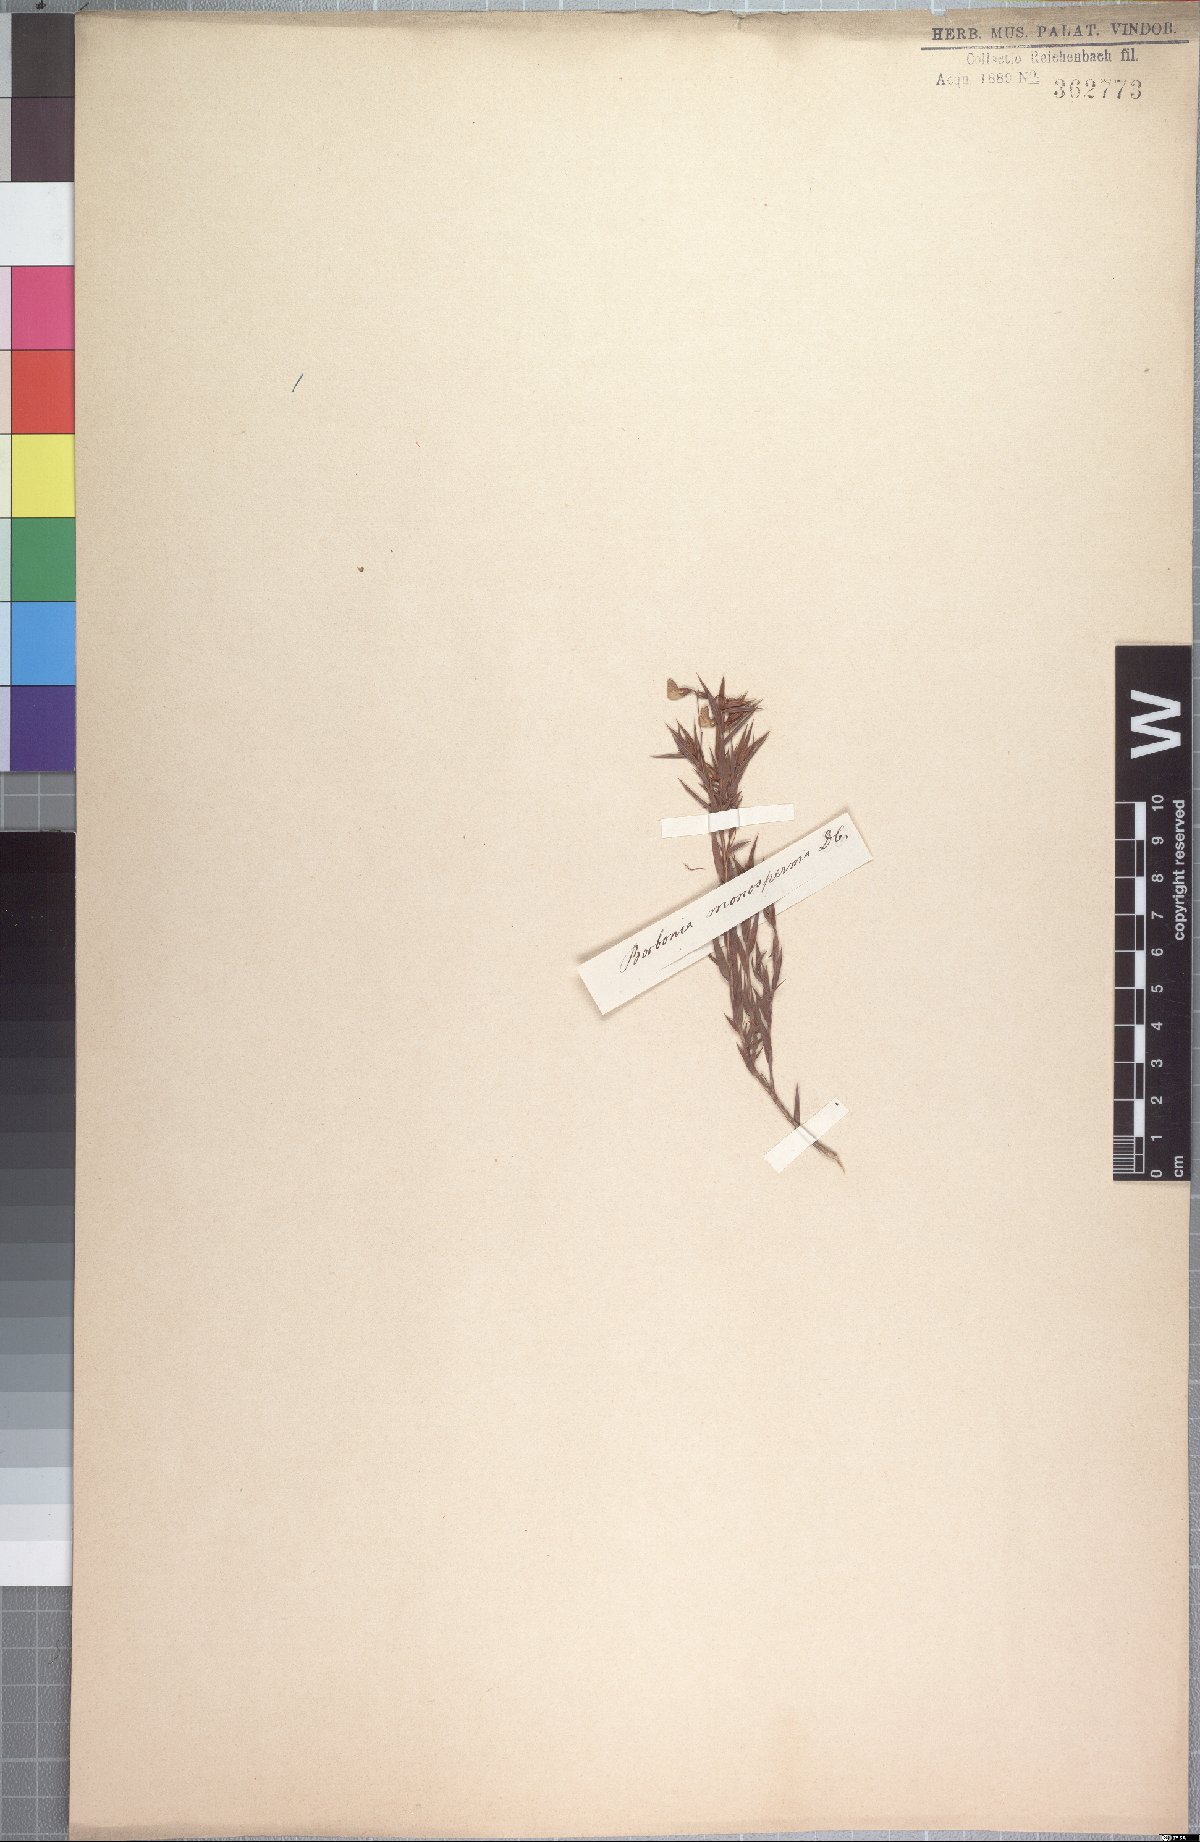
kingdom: Plantae
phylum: Tracheophyta
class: Magnoliopsida
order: Fabales
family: Fabaceae
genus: Aspalathus
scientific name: Aspalathus monosperma
